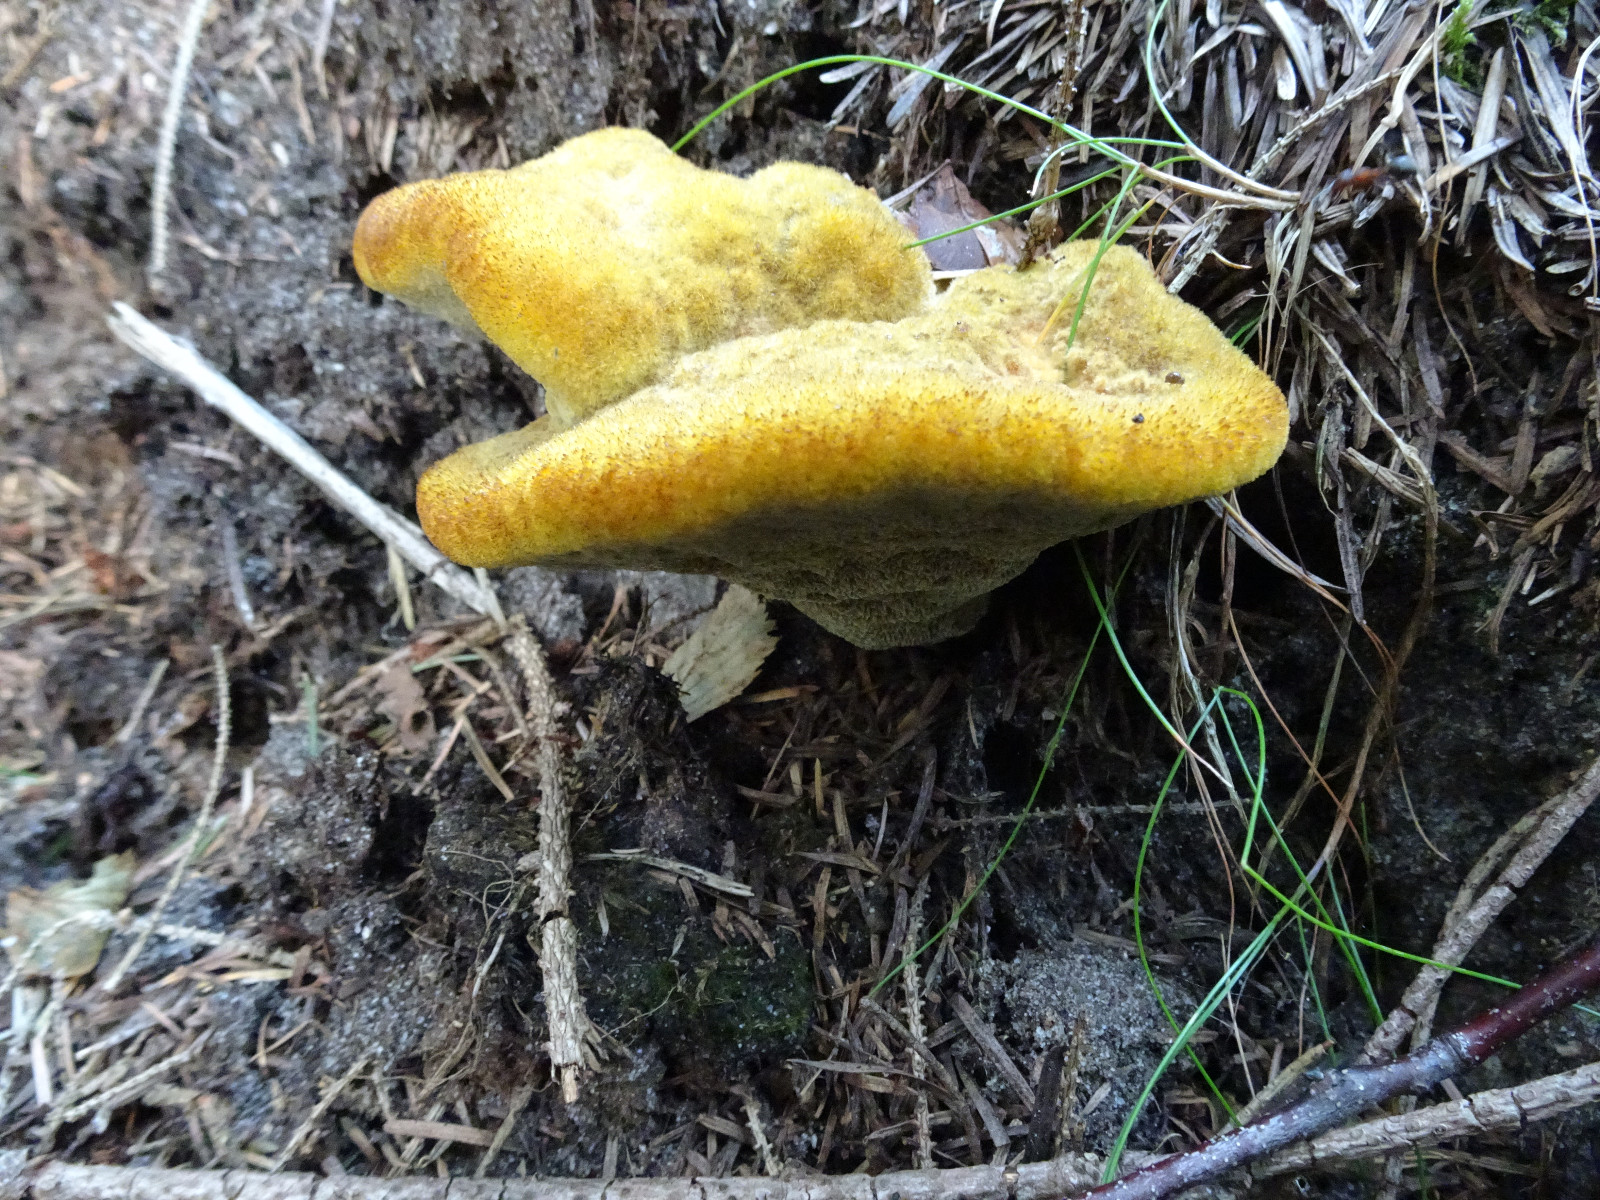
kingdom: Fungi
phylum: Basidiomycota
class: Agaricomycetes
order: Polyporales
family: Laetiporaceae
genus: Phaeolus
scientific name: Phaeolus schweinitzii
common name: brunporesvamp
